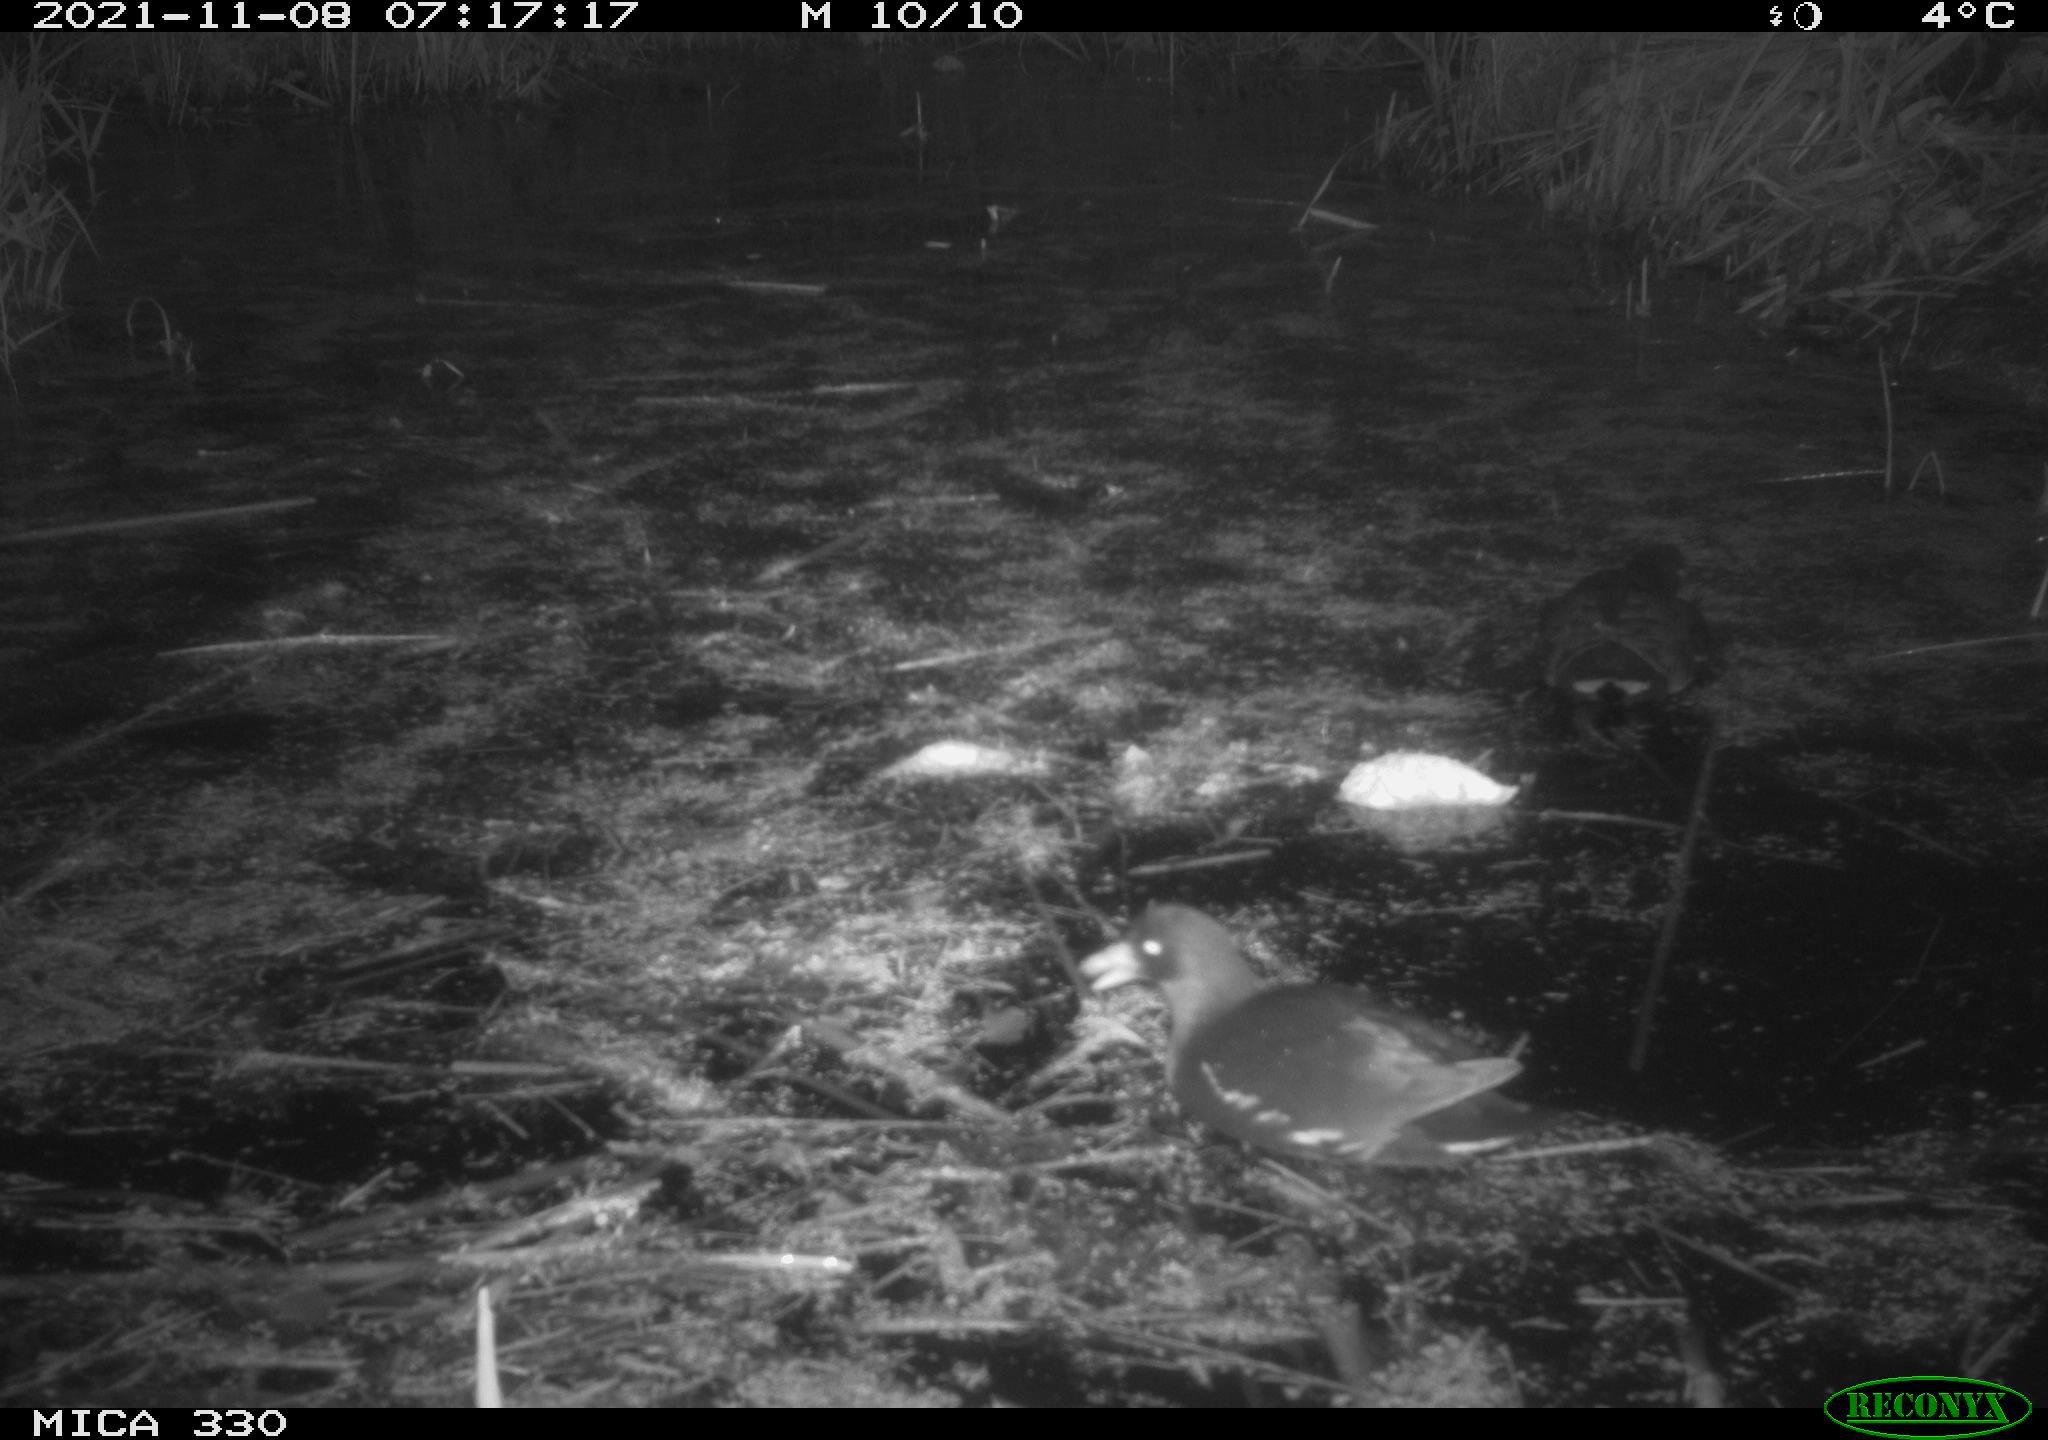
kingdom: Animalia
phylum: Chordata
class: Aves
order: Gruiformes
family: Rallidae
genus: Gallinula
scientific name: Gallinula chloropus
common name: Common moorhen
